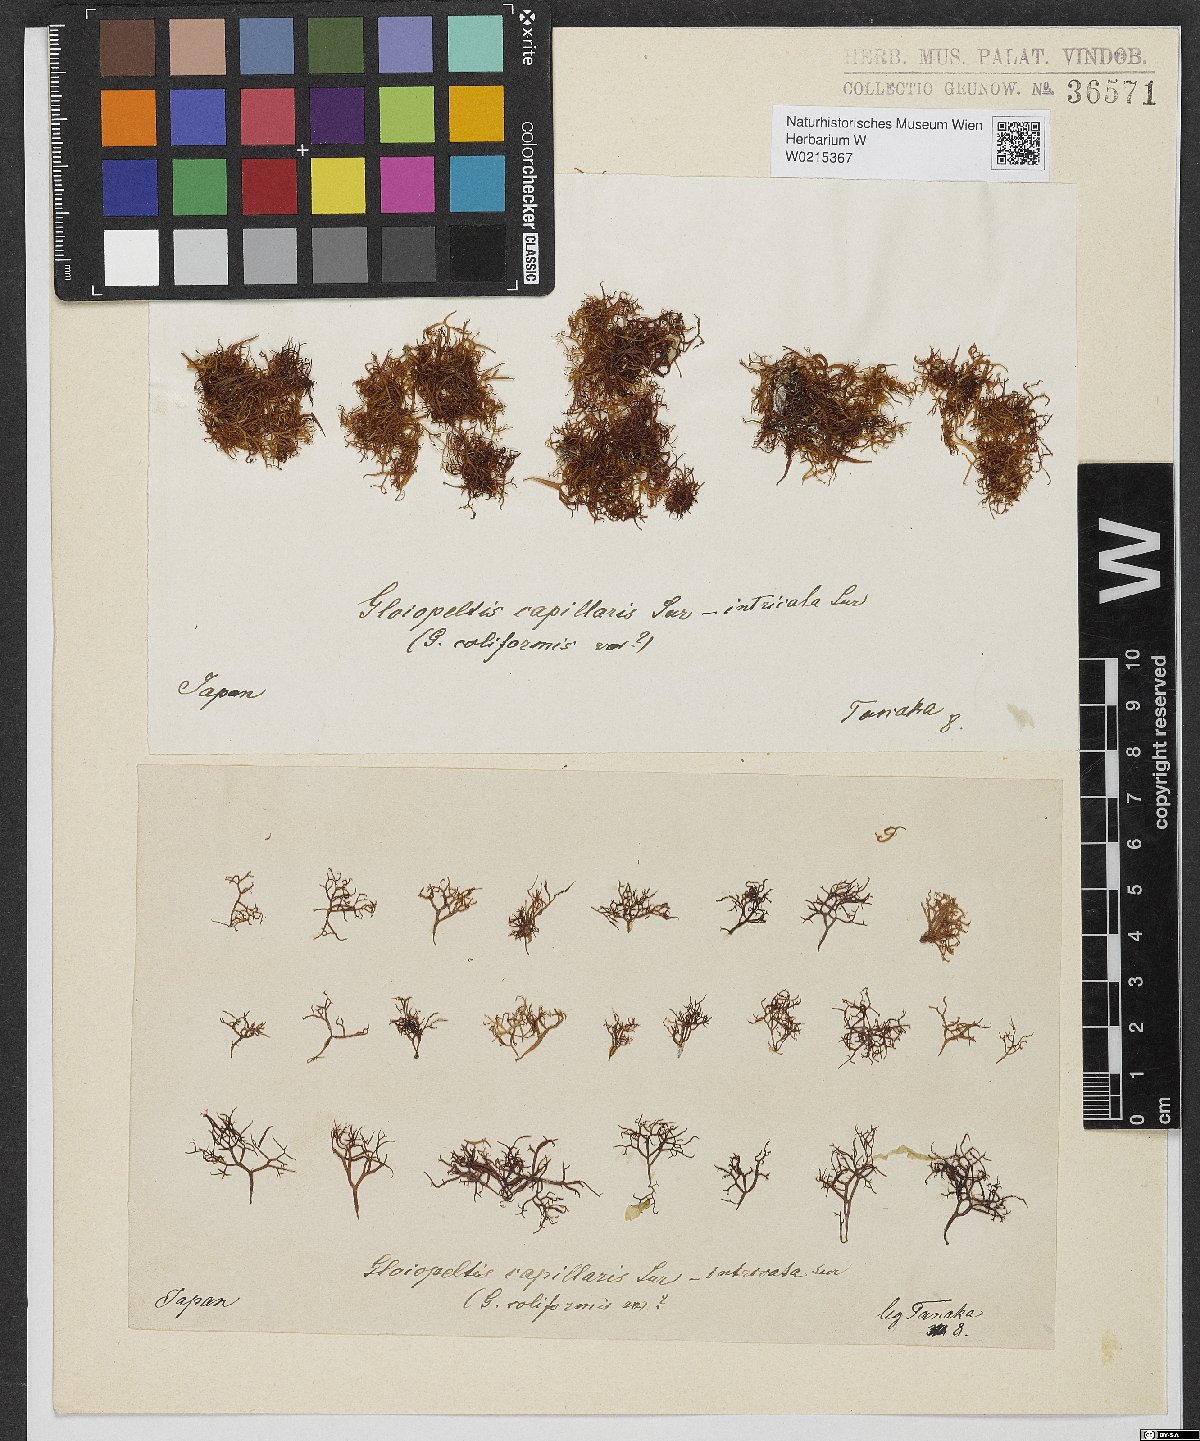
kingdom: Plantae
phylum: Rhodophyta
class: Florideophyceae
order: Gigartinales
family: Endocladiaceae
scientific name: Endocladiaceae
